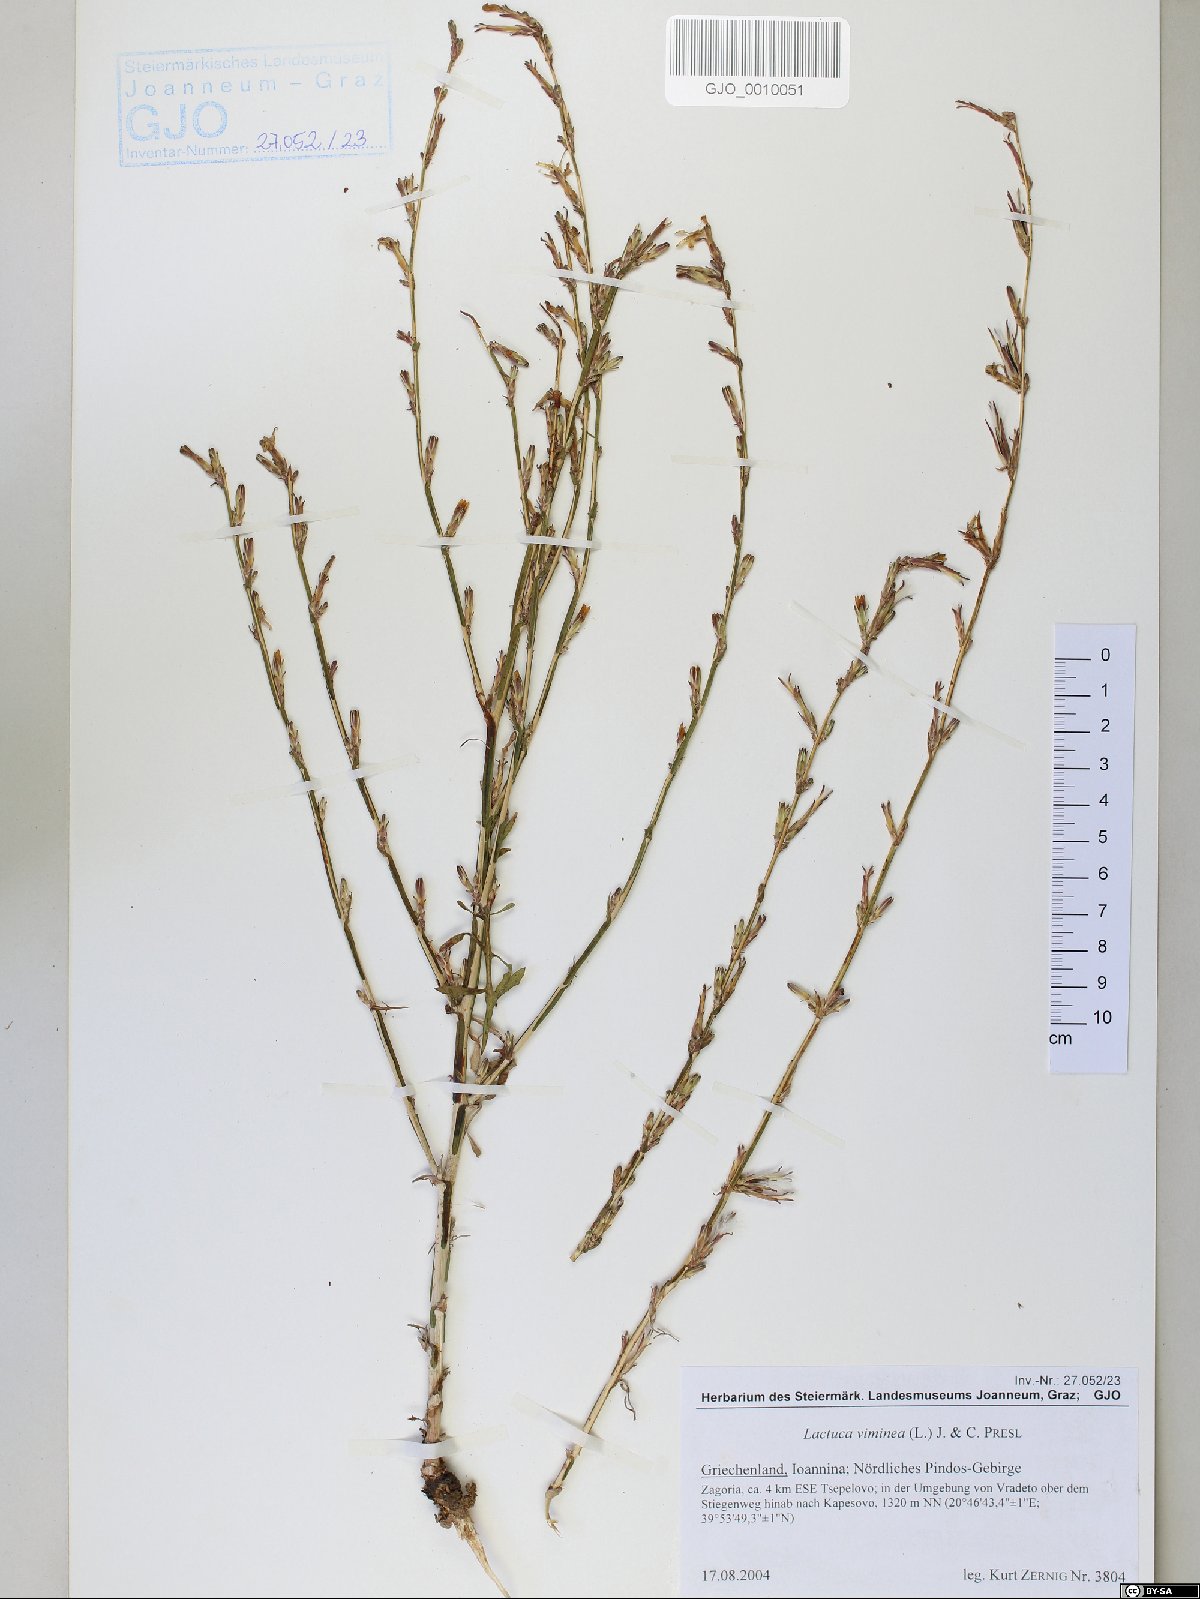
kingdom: Plantae
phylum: Tracheophyta
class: Magnoliopsida
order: Asterales
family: Asteraceae
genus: Lactuca
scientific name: Lactuca viminea
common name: Pliant lettuce
